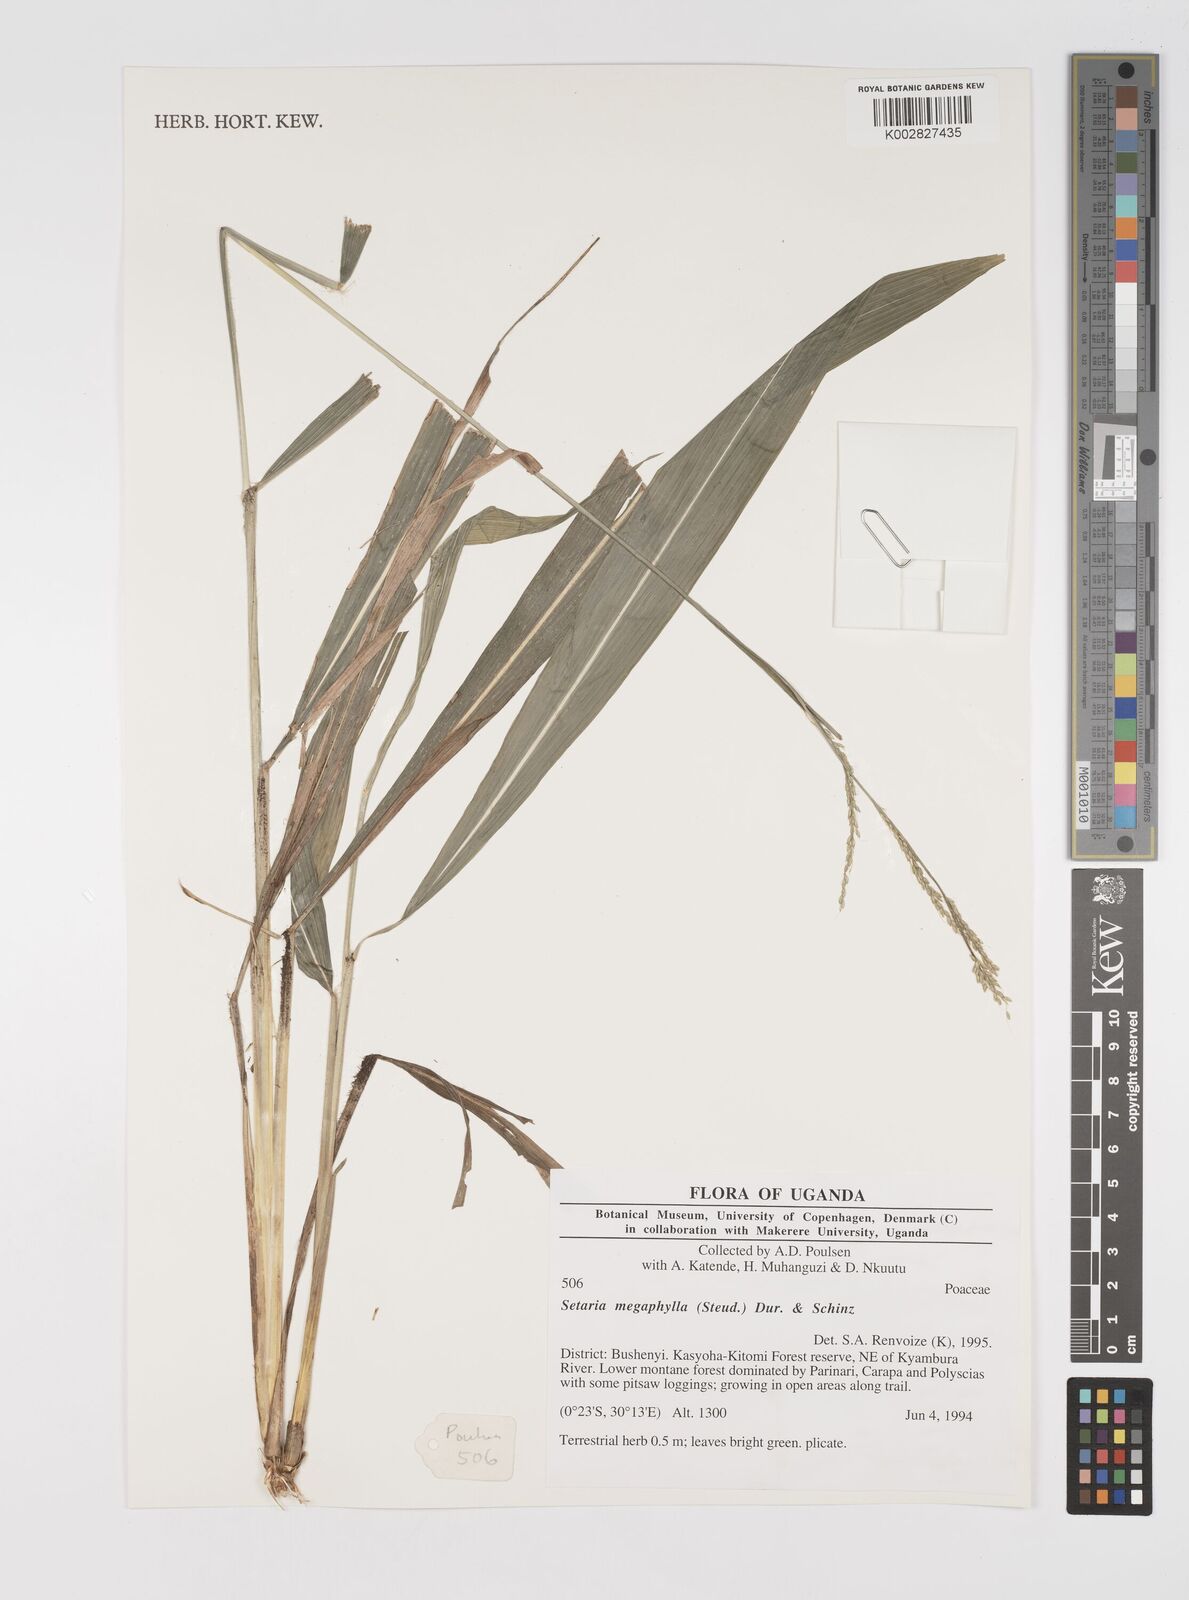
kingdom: Plantae
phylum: Tracheophyta
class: Liliopsida
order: Poales
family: Poaceae
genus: Setaria
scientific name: Setaria megaphylla
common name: Bigleaf bristlegrass
